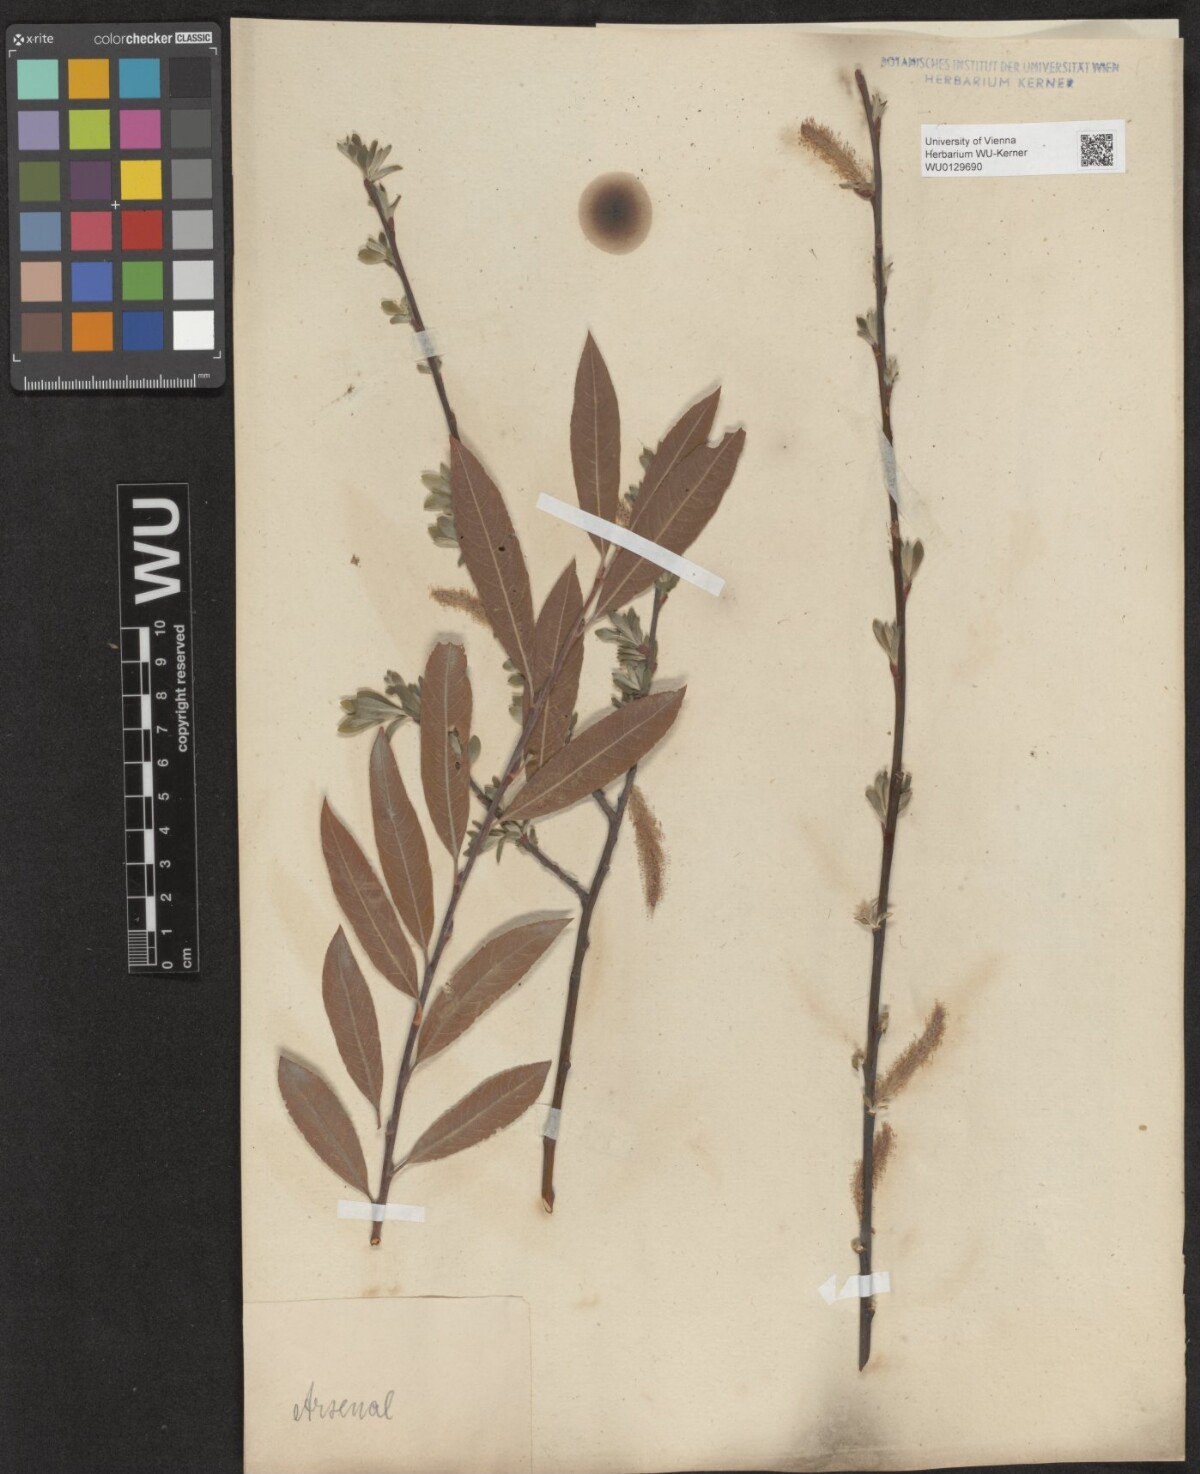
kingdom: Plantae
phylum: Tracheophyta
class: Magnoliopsida
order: Malpighiales
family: Salicaceae
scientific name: Salicaceae
